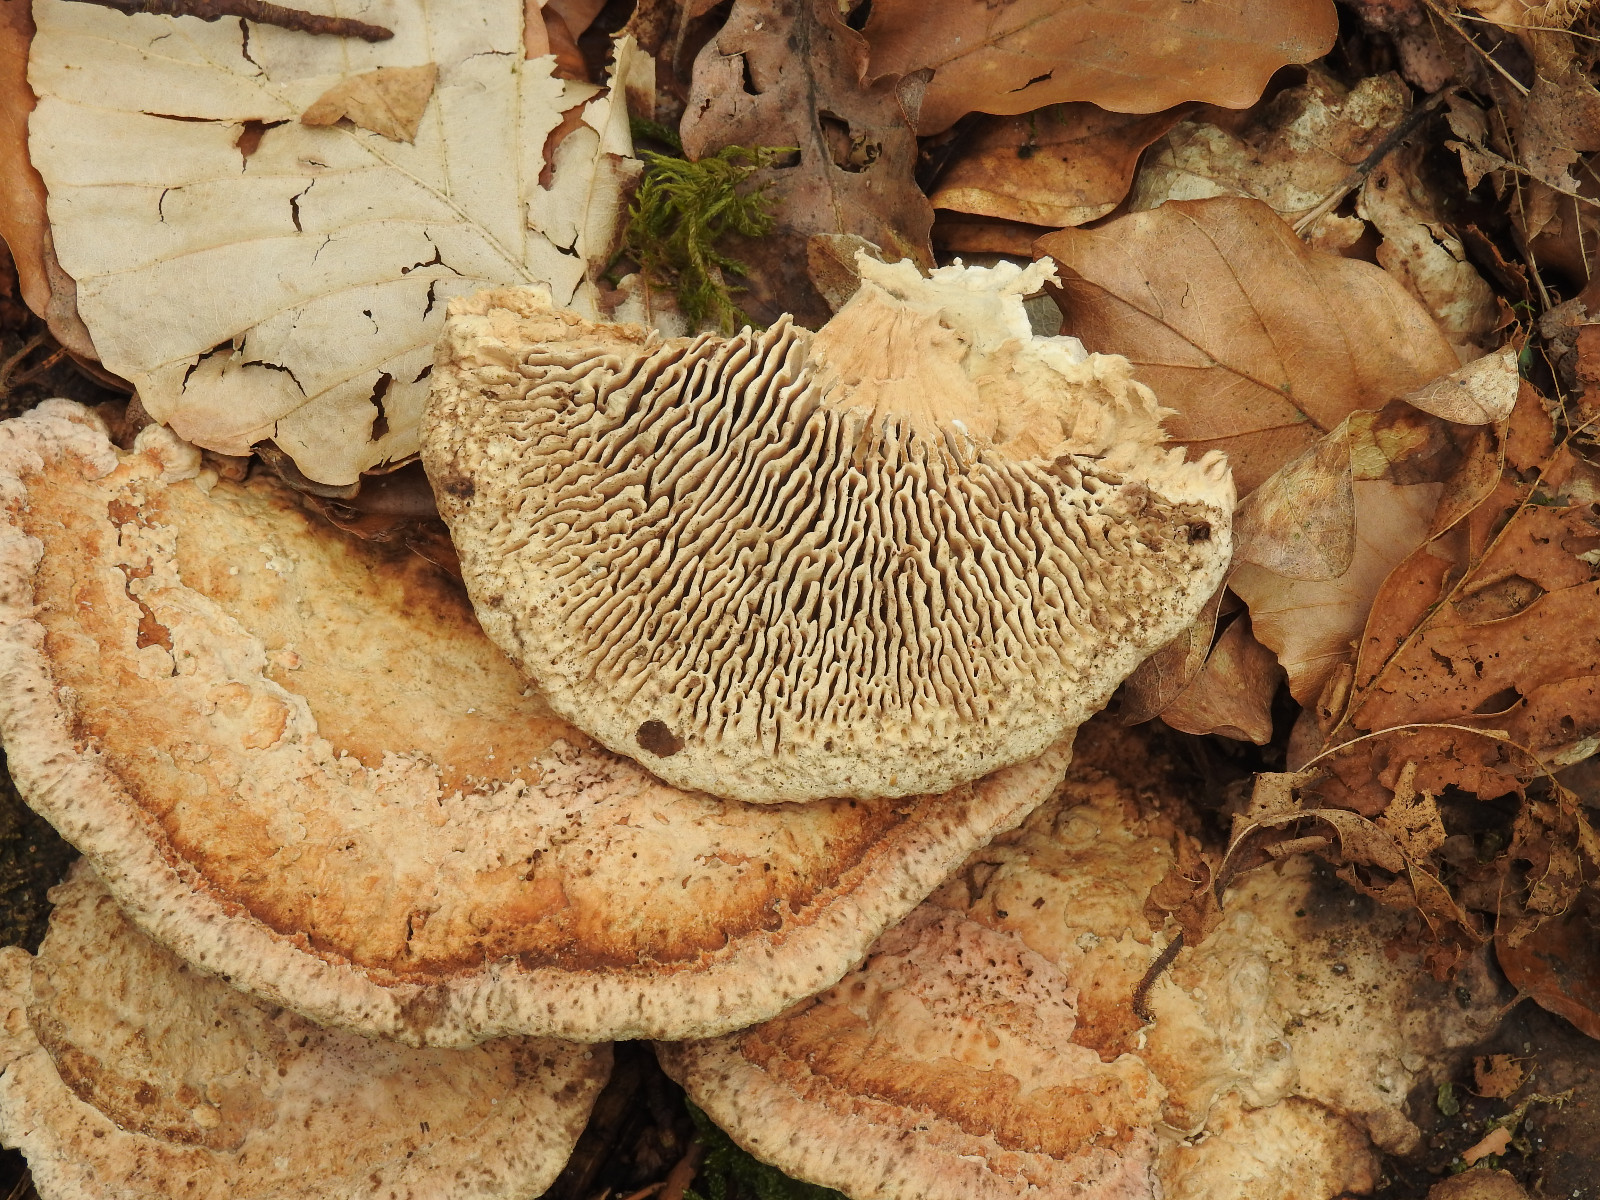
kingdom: Fungi
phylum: Basidiomycota
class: Agaricomycetes
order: Polyporales
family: Fomitopsidaceae
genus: Daedalea
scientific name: Daedalea quercina
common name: ege-labyrintsvamp
